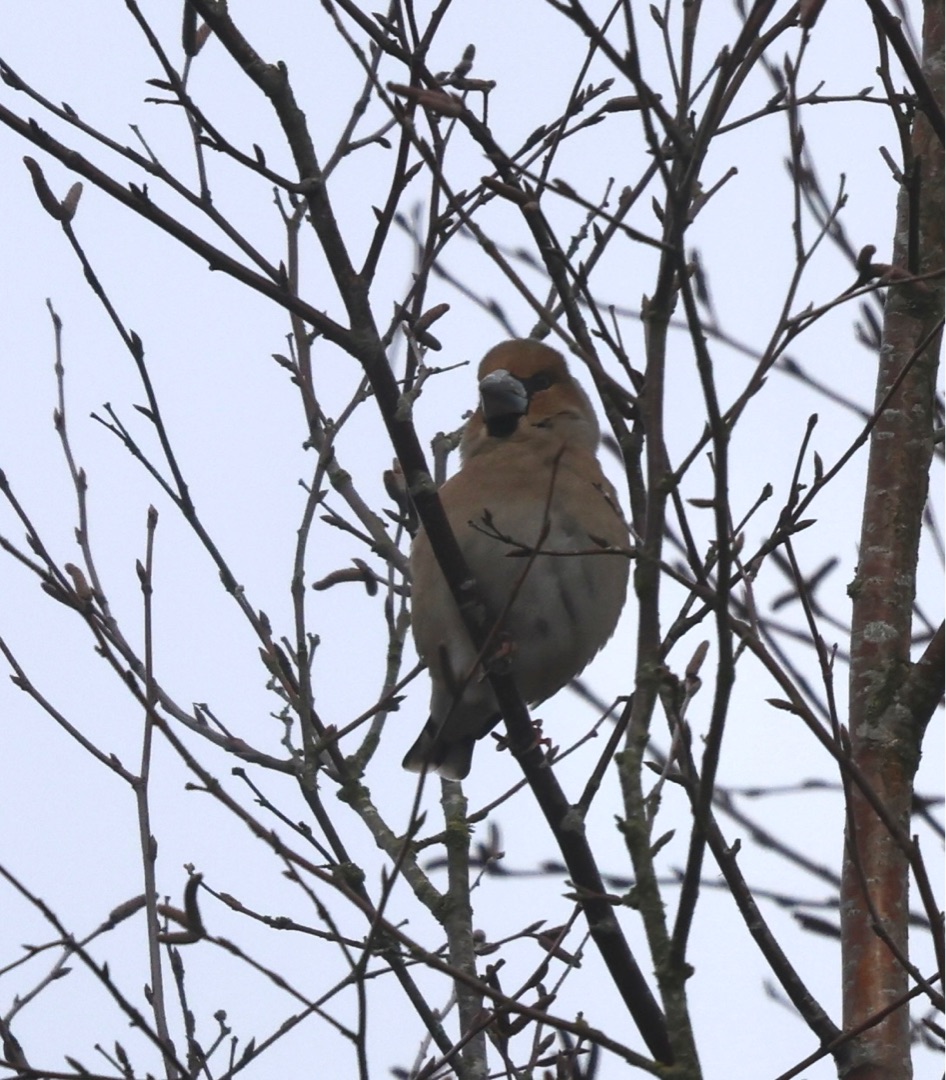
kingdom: Animalia
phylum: Chordata
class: Aves
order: Passeriformes
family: Fringillidae
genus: Coccothraustes
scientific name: Coccothraustes coccothraustes
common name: Kernebider
